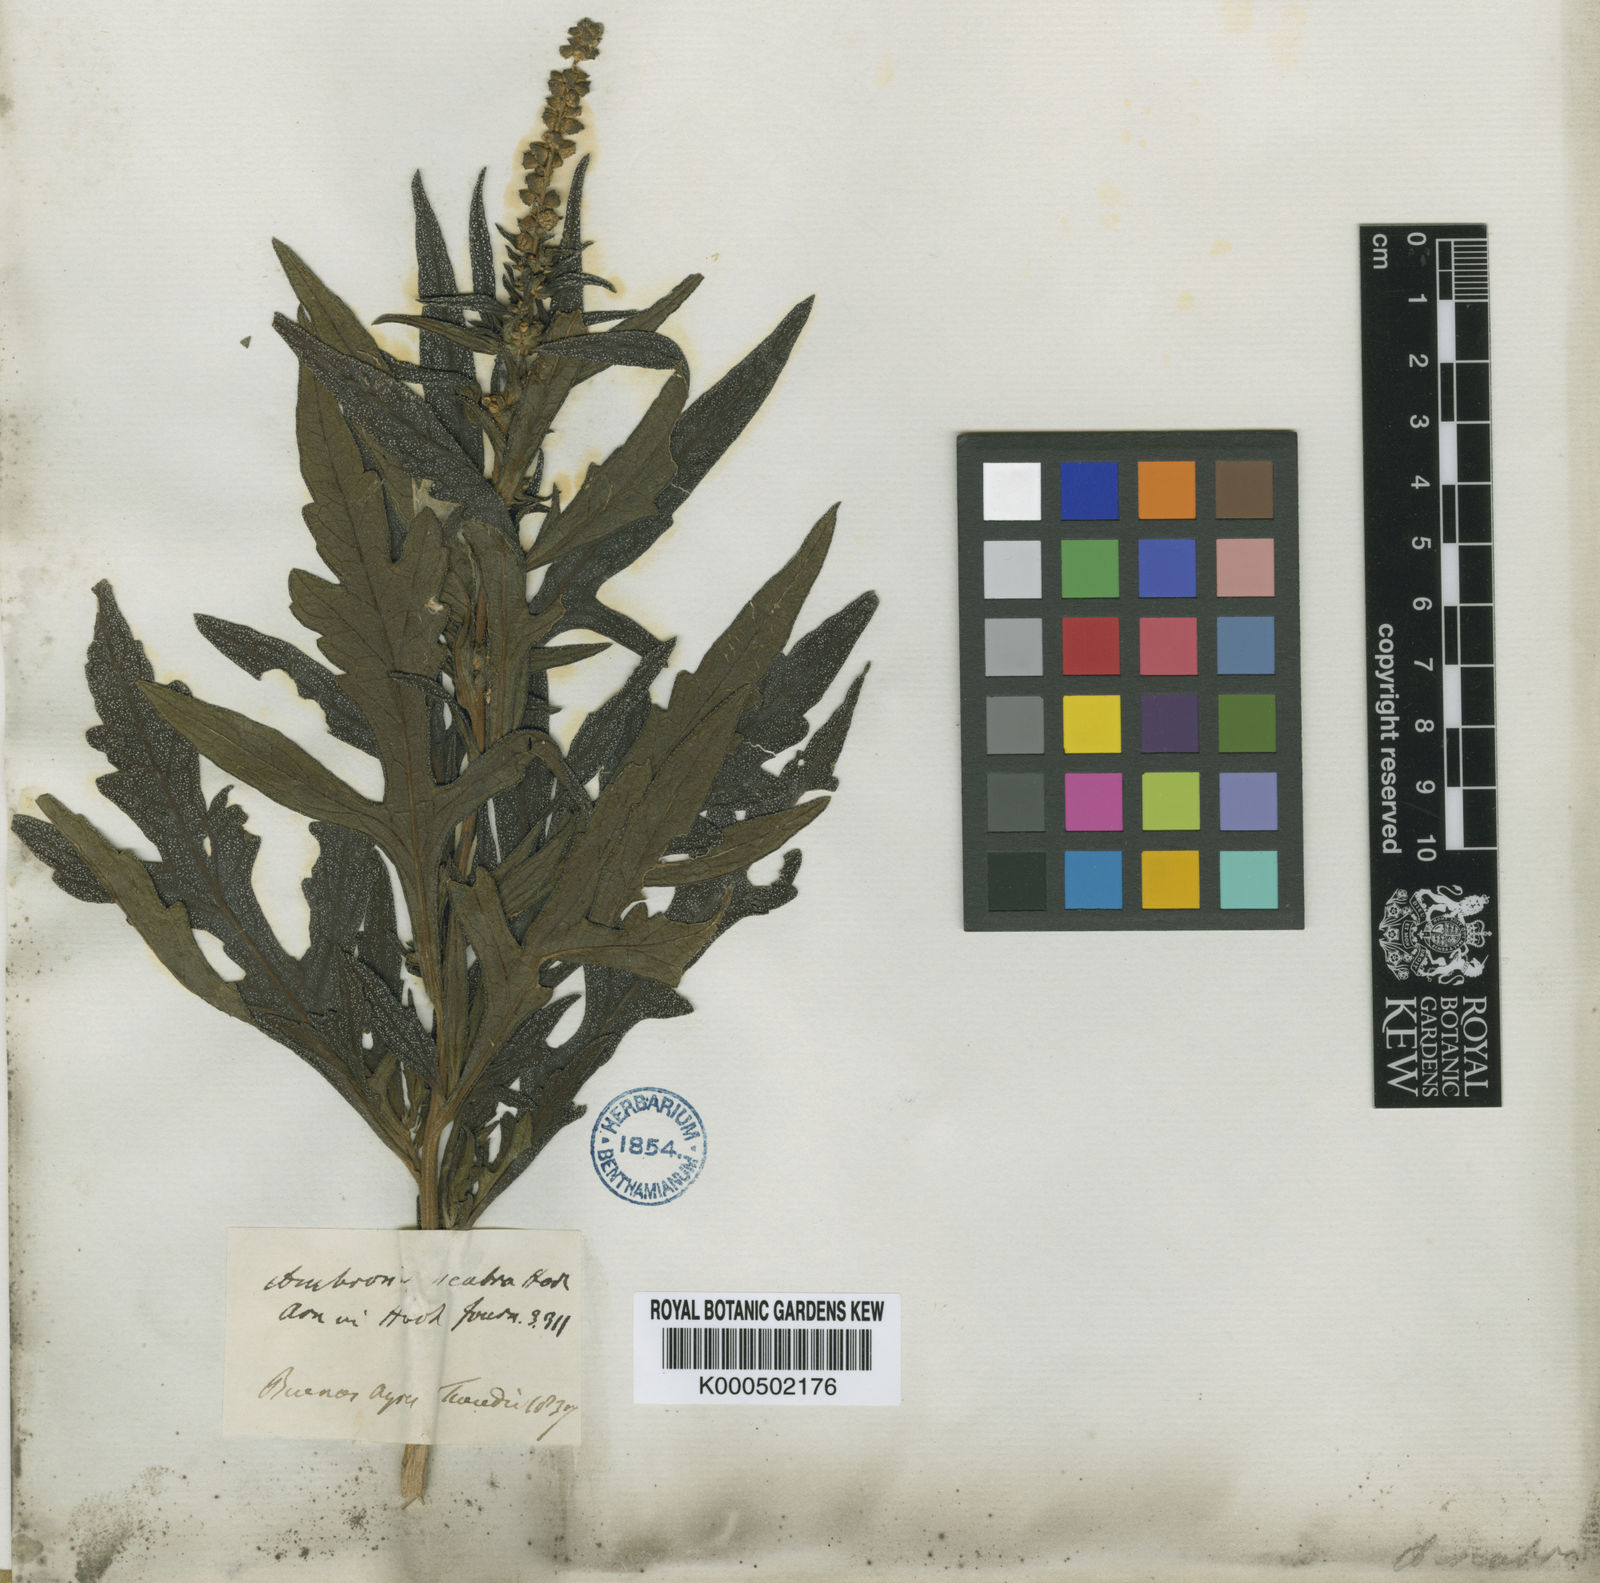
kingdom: Plantae
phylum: Tracheophyta
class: Magnoliopsida
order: Asterales
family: Asteraceae
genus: Ambrosia
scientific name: Ambrosia scabra
